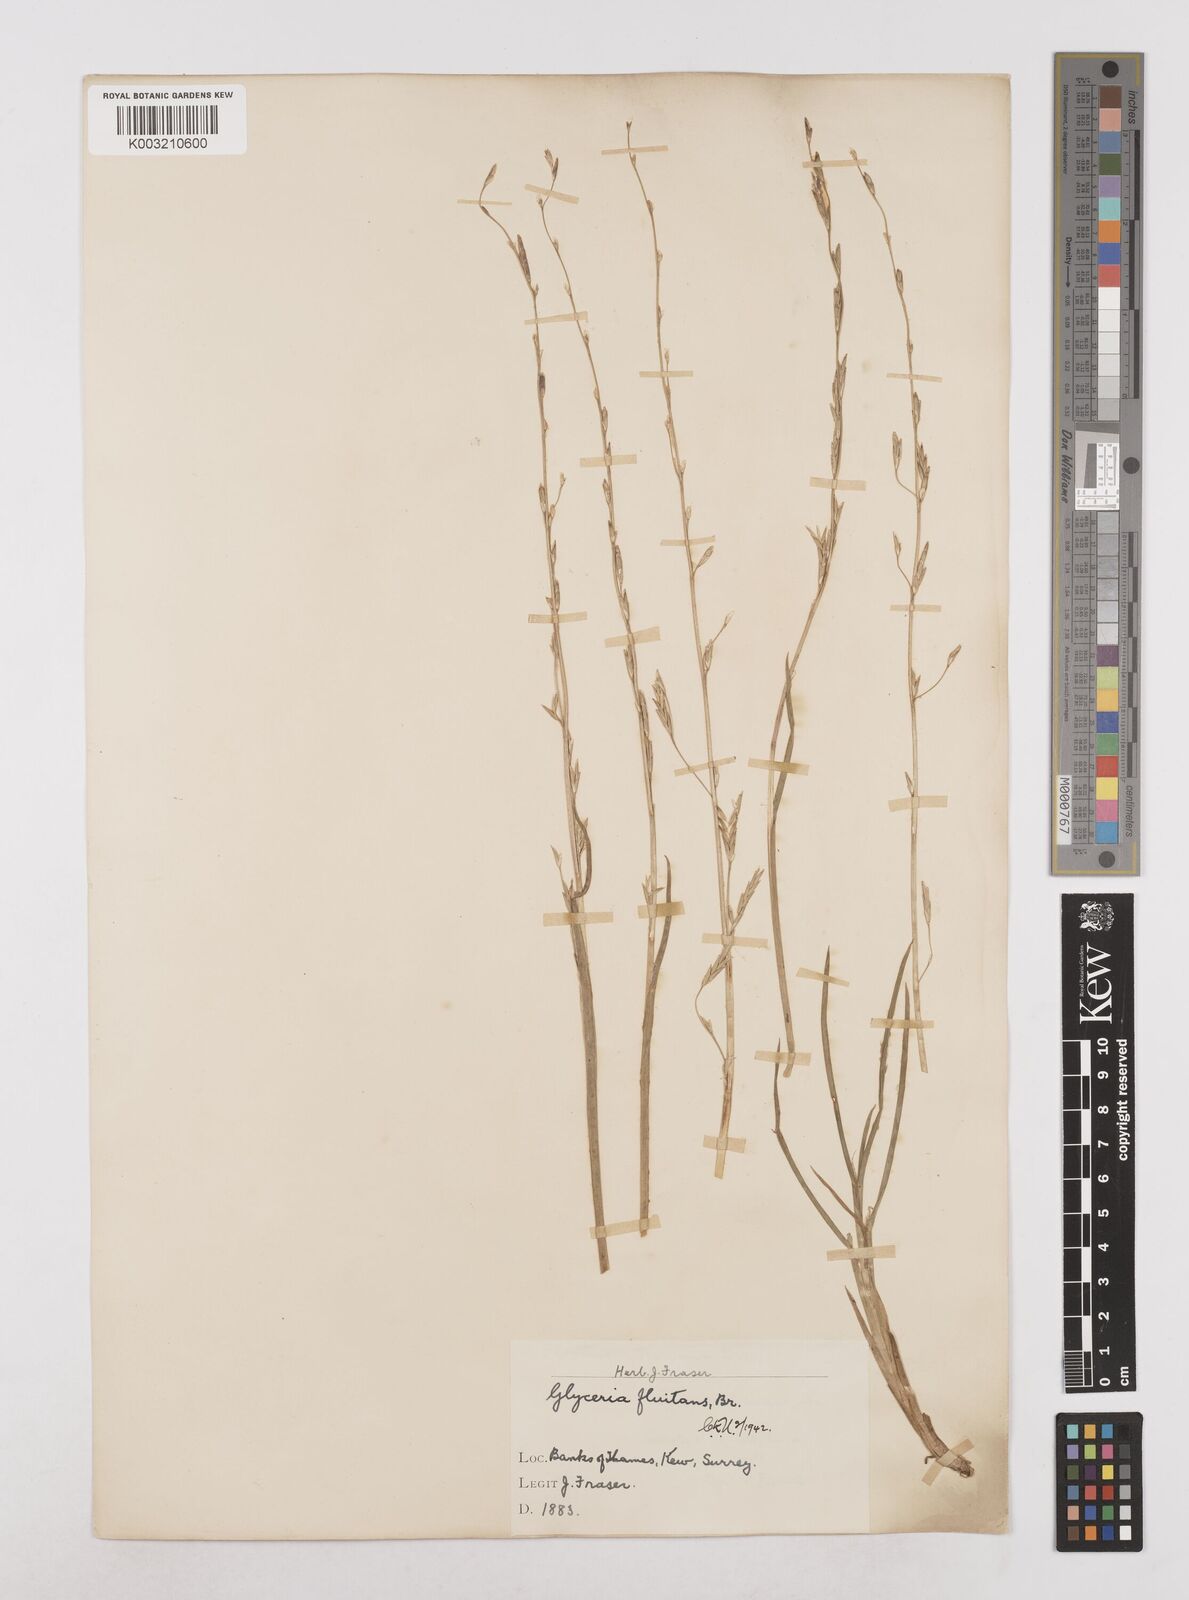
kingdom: Plantae
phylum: Tracheophyta
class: Liliopsida
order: Poales
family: Poaceae
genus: Glyceria
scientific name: Glyceria fluitans
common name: Floating sweet-grass
